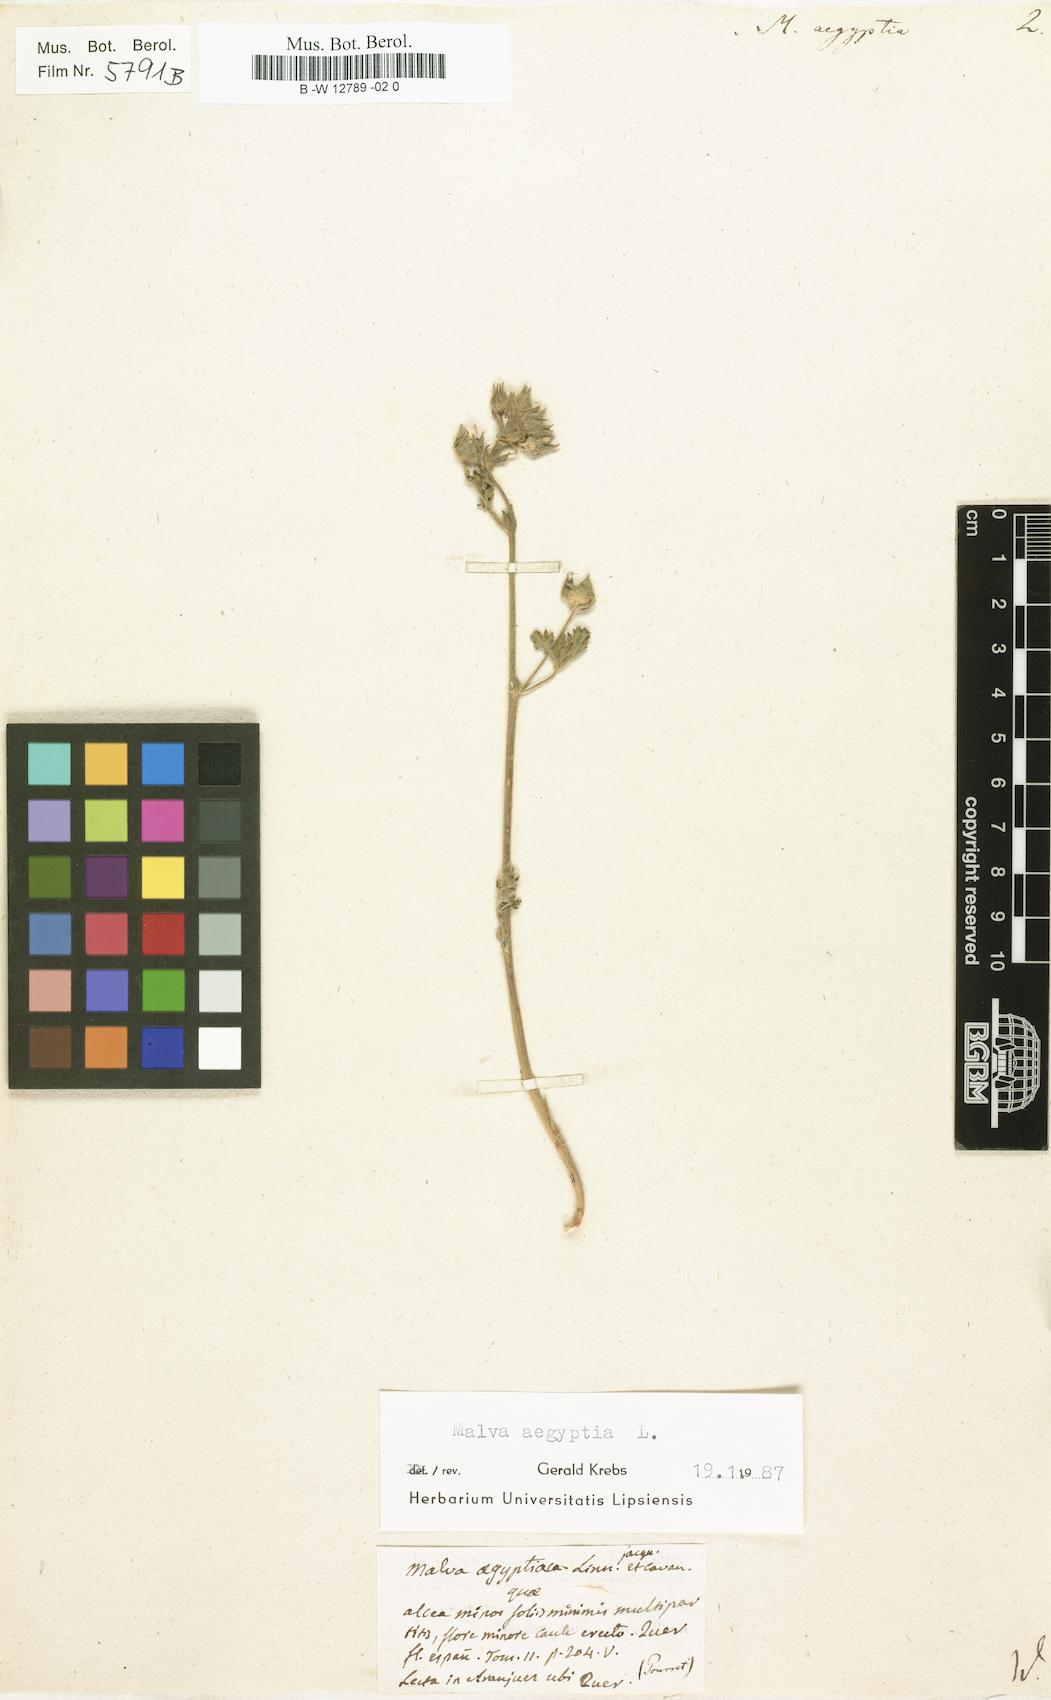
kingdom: Plantae
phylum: Tracheophyta
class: Magnoliopsida
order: Malvales
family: Malvaceae
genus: Malva
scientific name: Malva aegyptia
